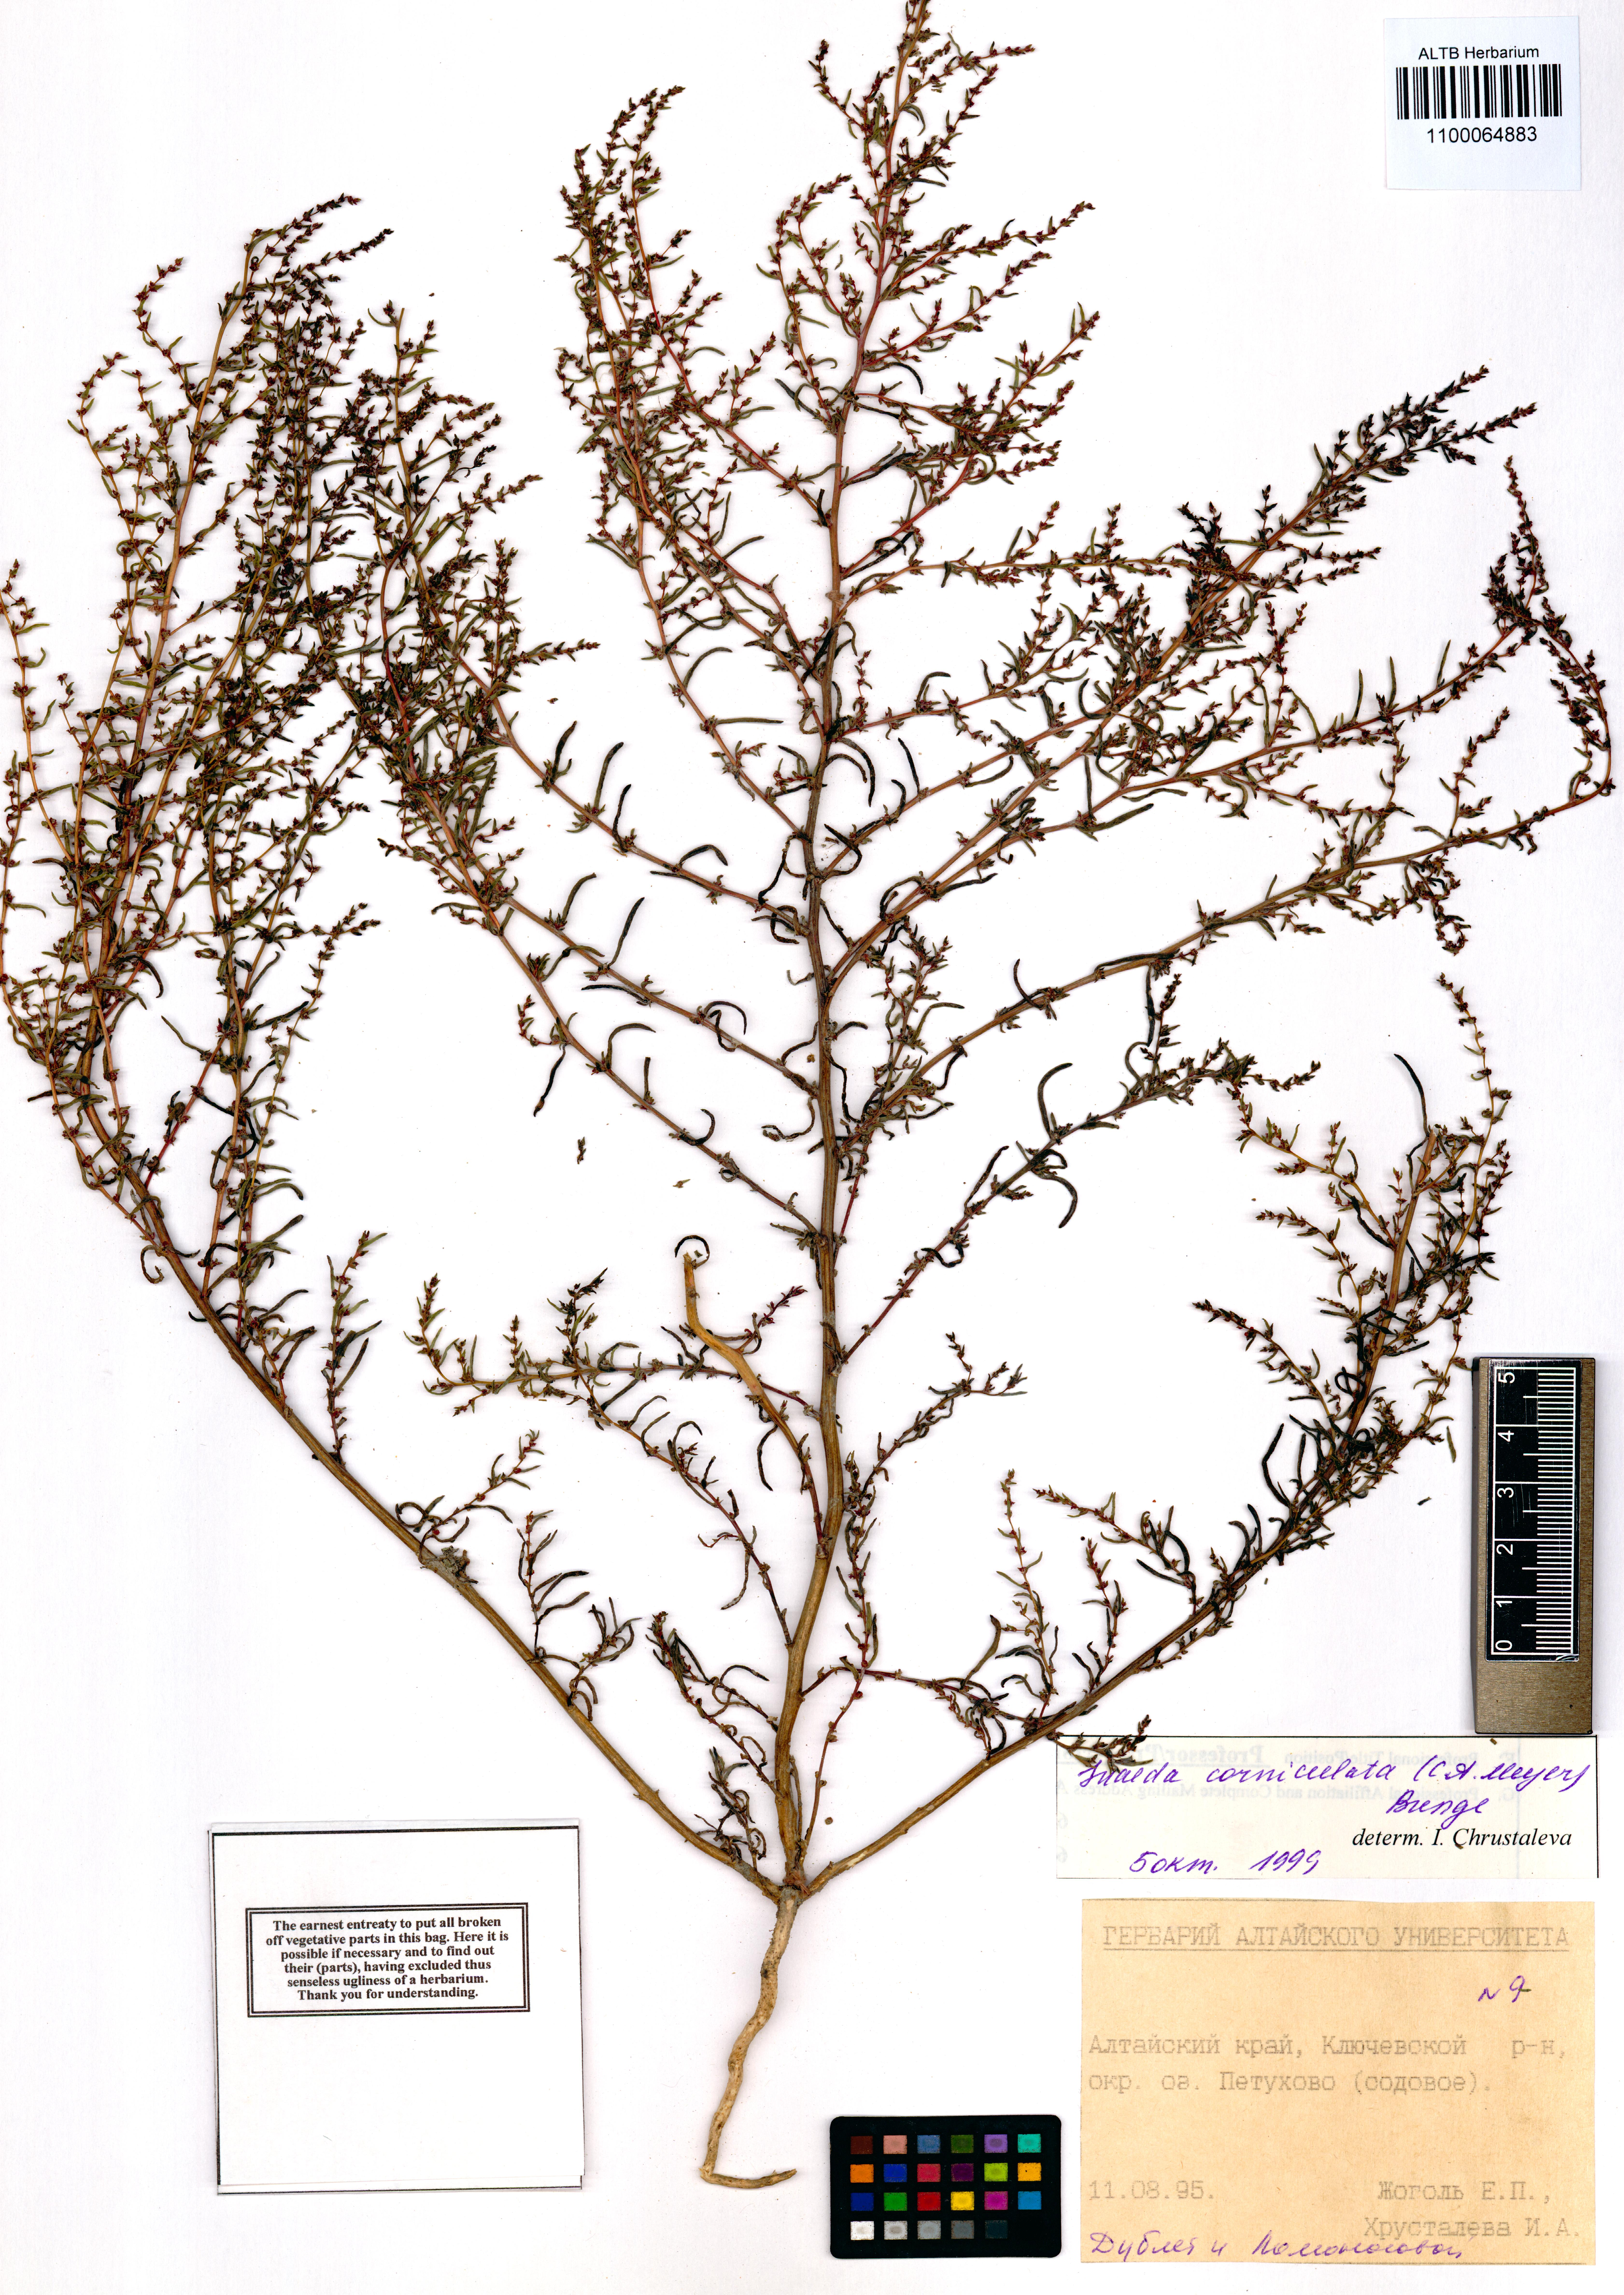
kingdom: Plantae
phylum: Tracheophyta
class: Magnoliopsida
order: Caryophyllales
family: Amaranthaceae
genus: Suaeda
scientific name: Suaeda corniculata
